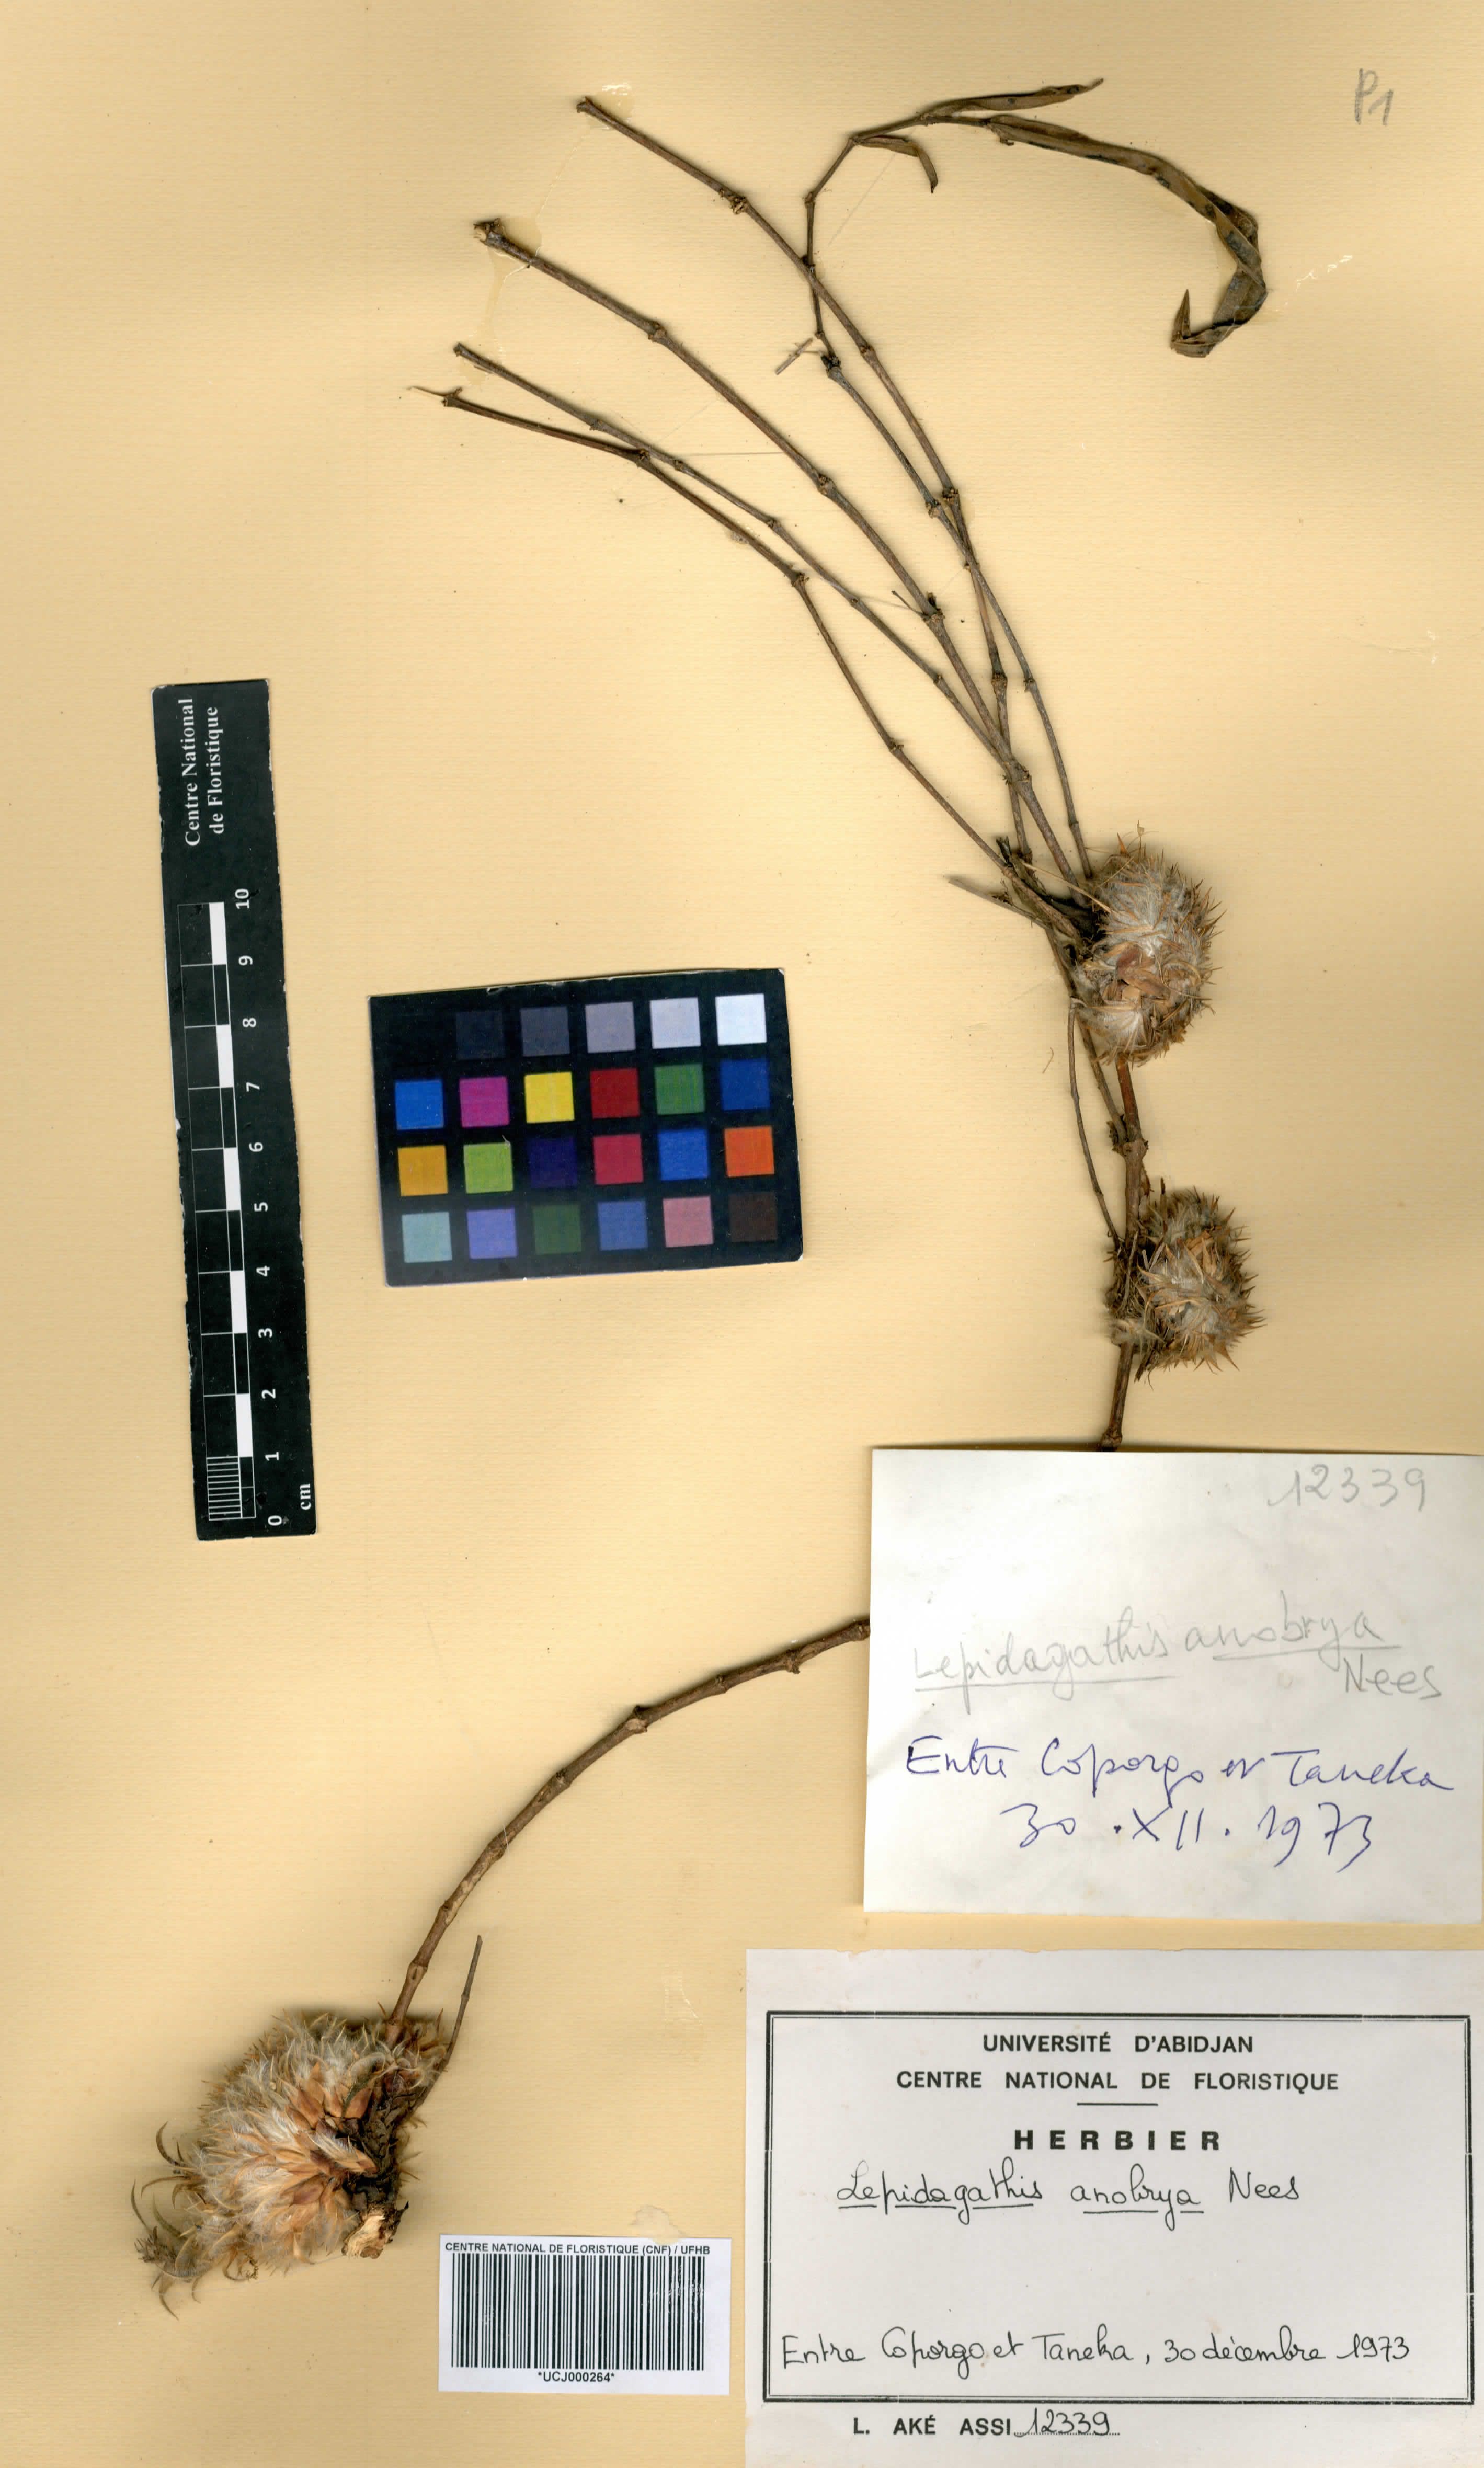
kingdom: Plantae
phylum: Tracheophyta
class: Magnoliopsida
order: Lamiales
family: Acanthaceae
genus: Lepidagathis
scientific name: Lepidagathis anobrya
